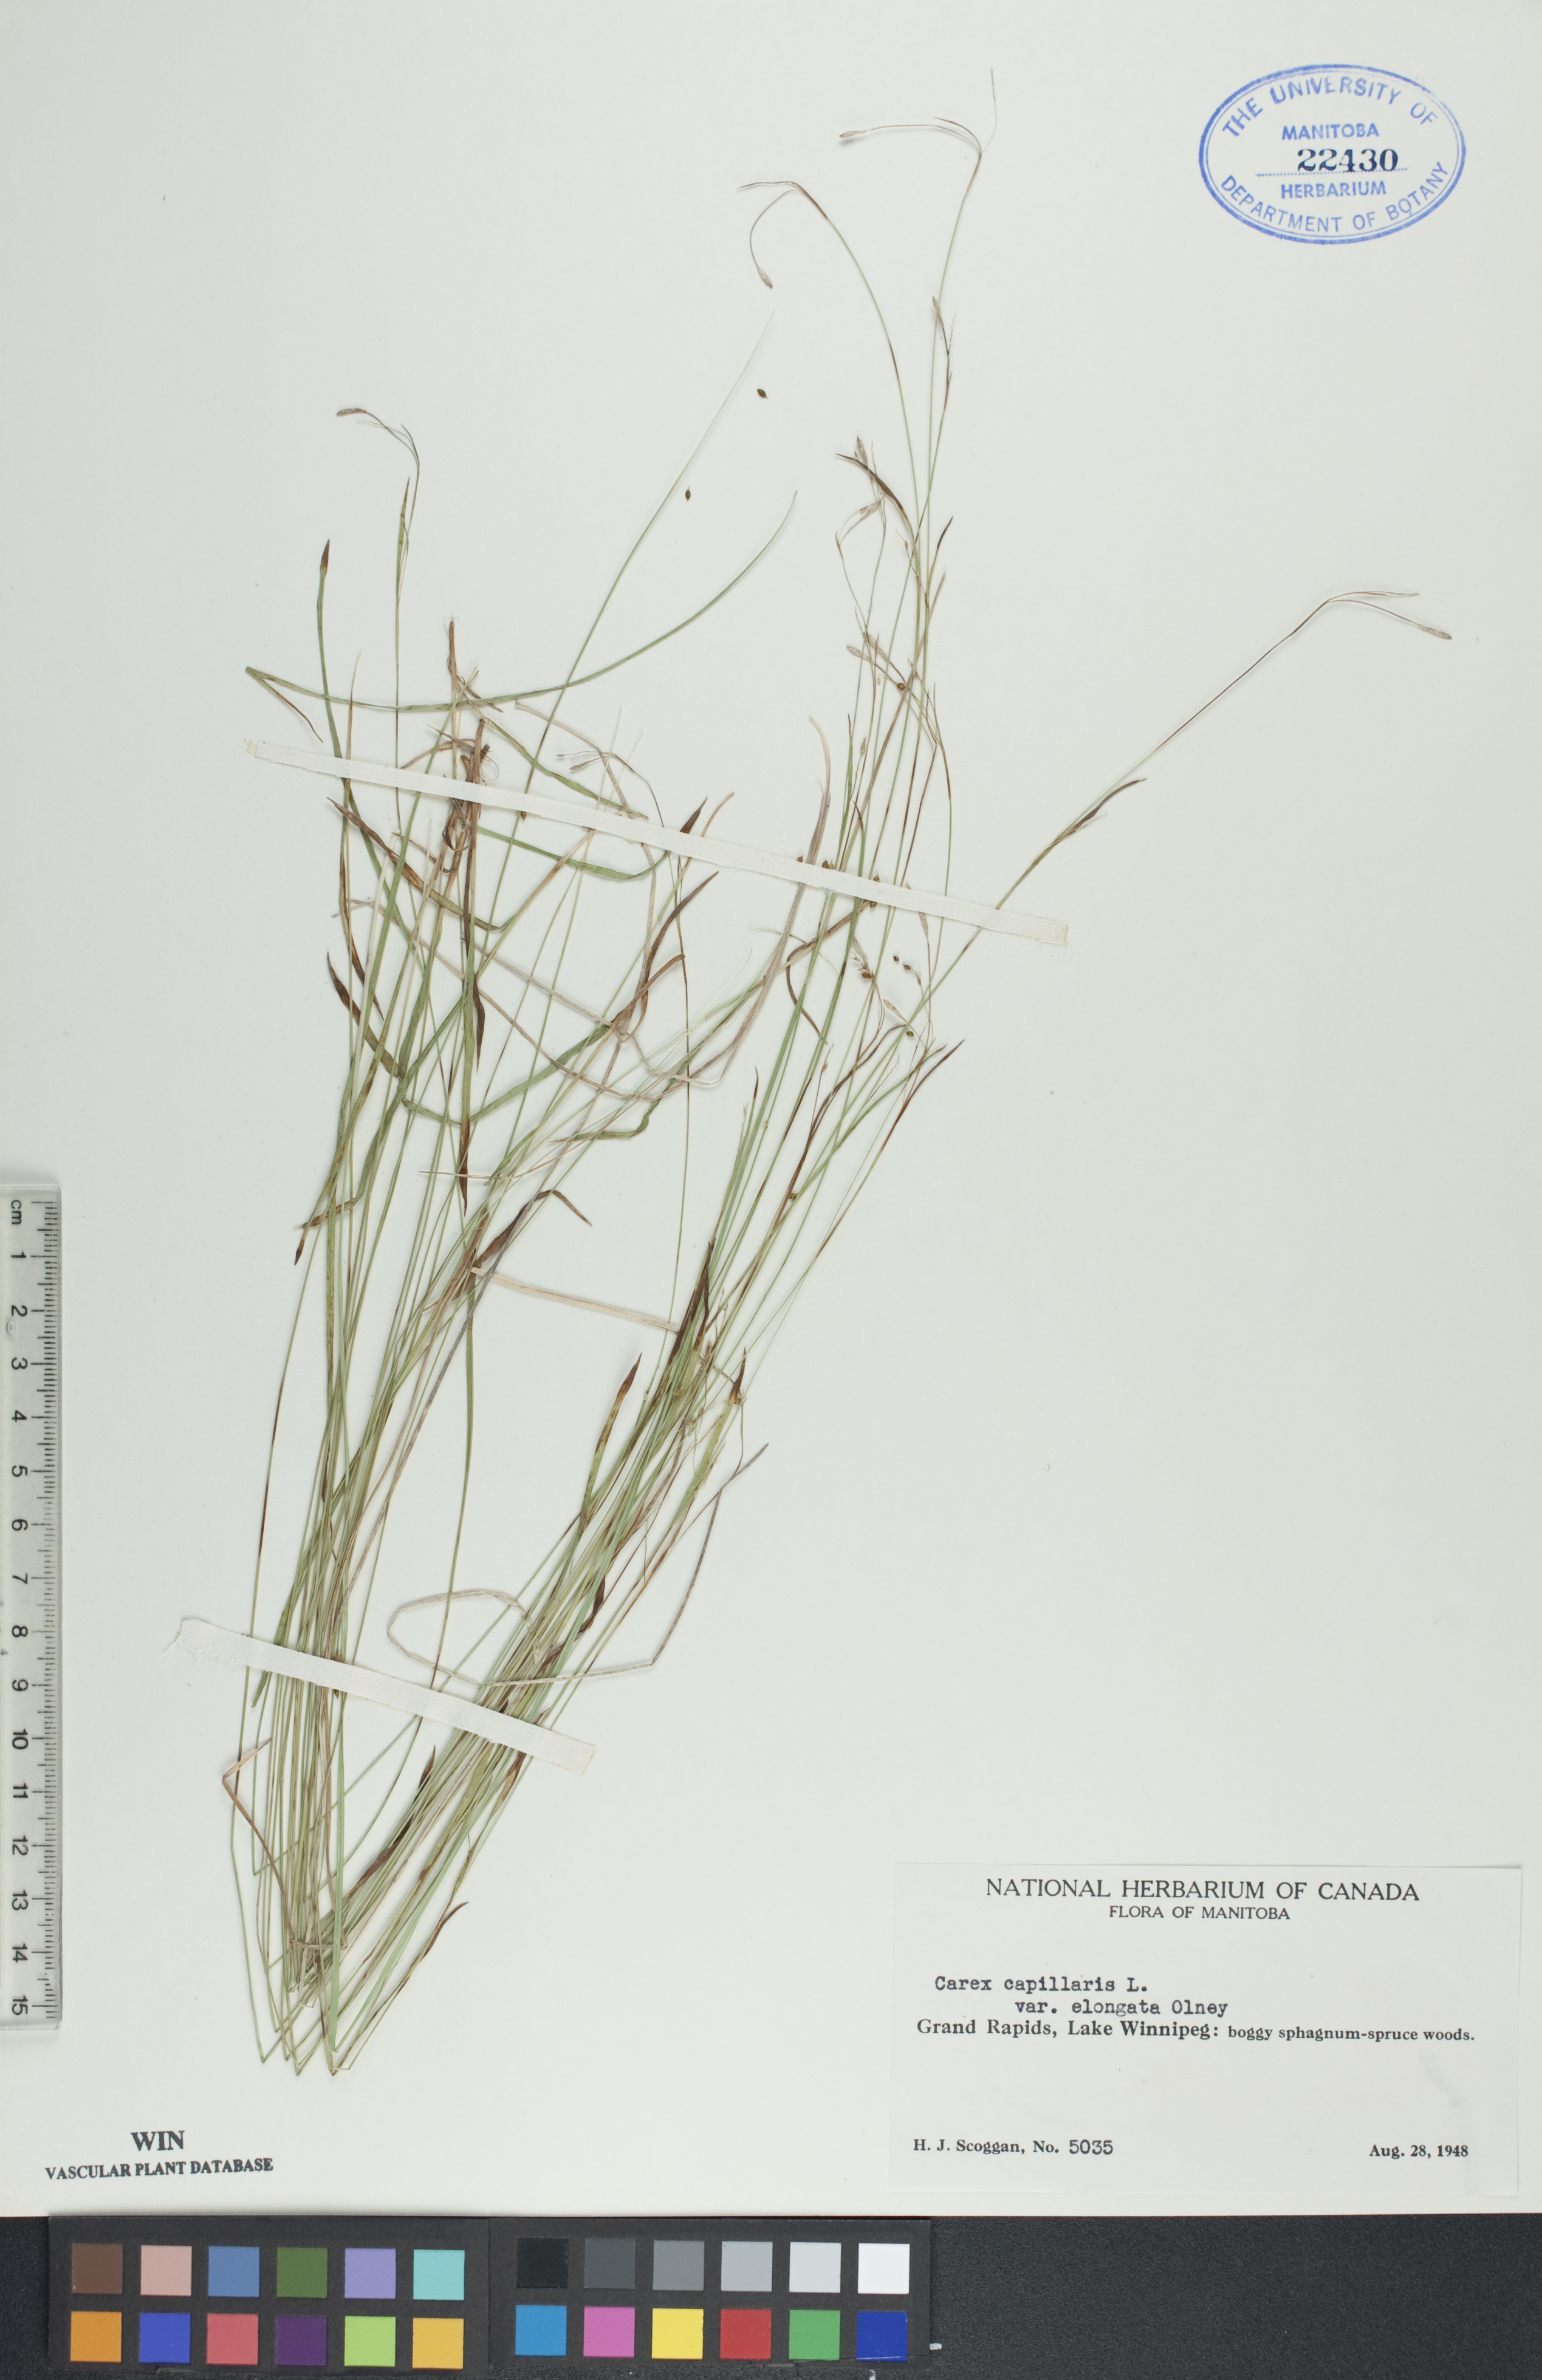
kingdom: Plantae
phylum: Tracheophyta
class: Liliopsida
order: Poales
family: Cyperaceae
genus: Carex
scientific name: Carex capillaris
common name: Hair sedge
